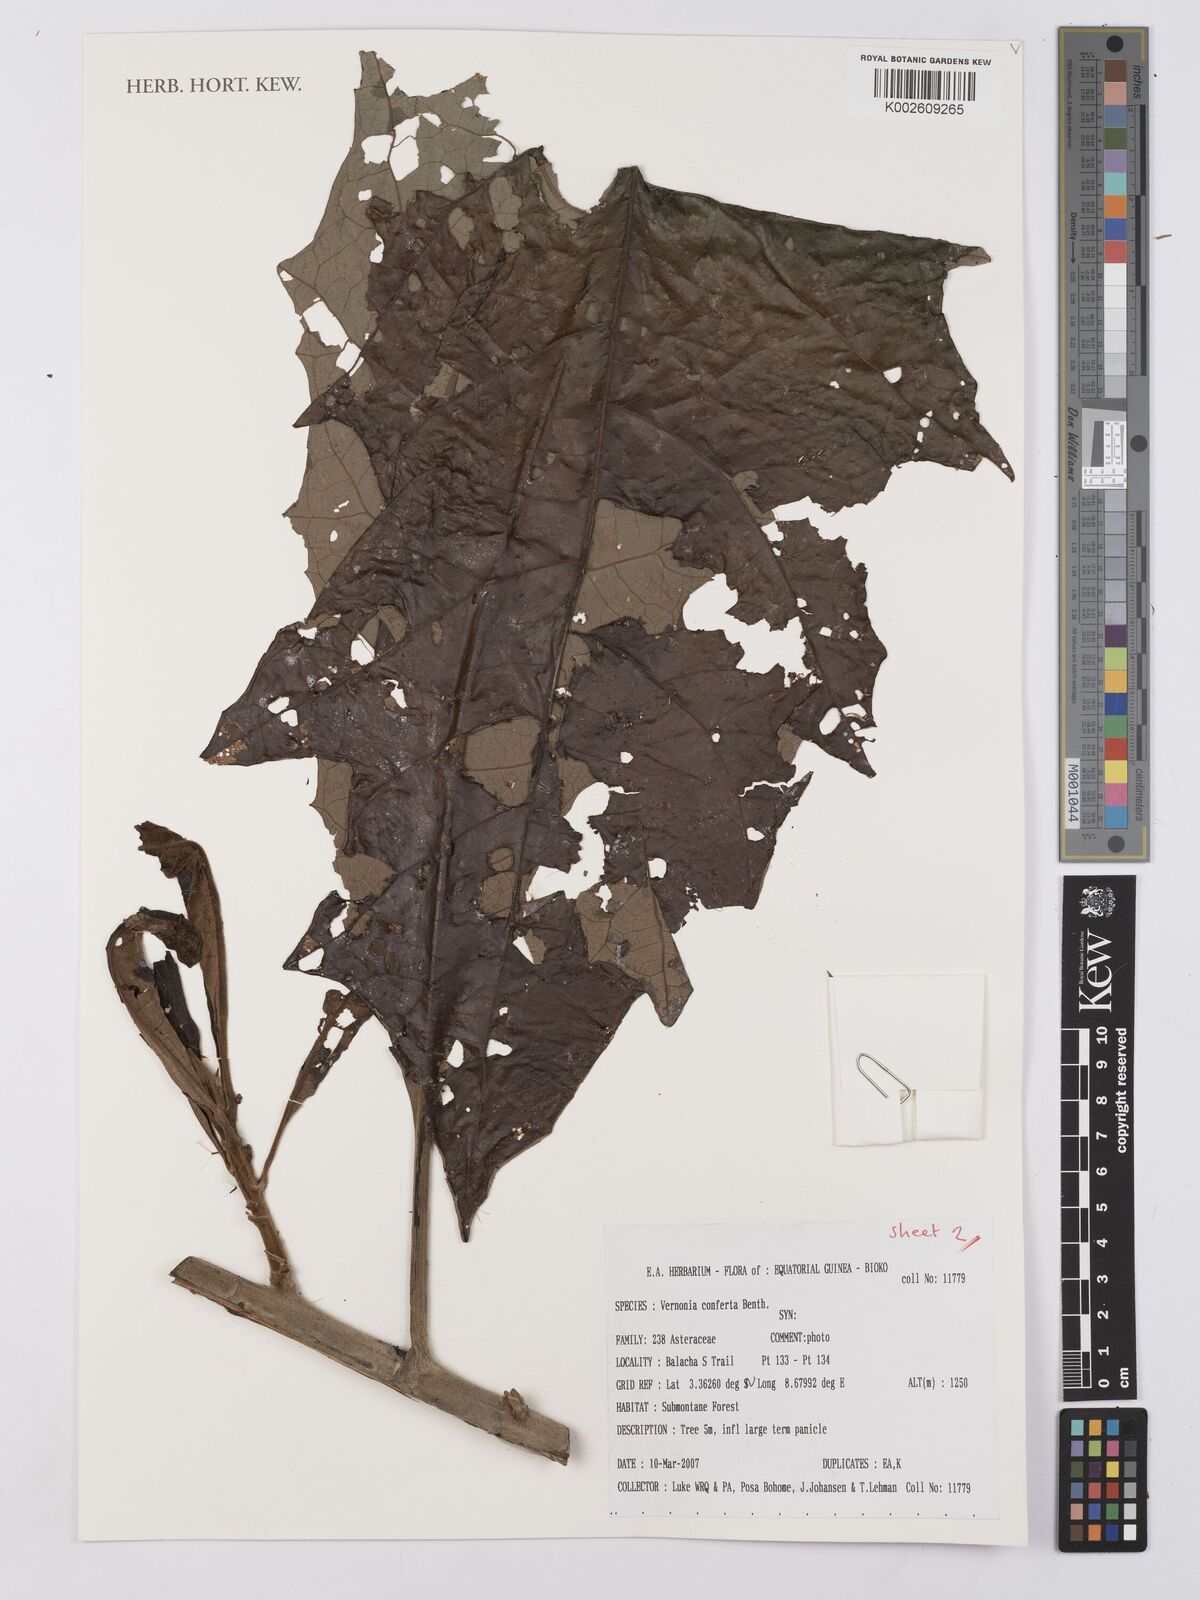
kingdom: Plantae
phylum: Tracheophyta
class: Magnoliopsida
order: Asterales
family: Asteraceae
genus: Monosis
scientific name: Monosis conferta
